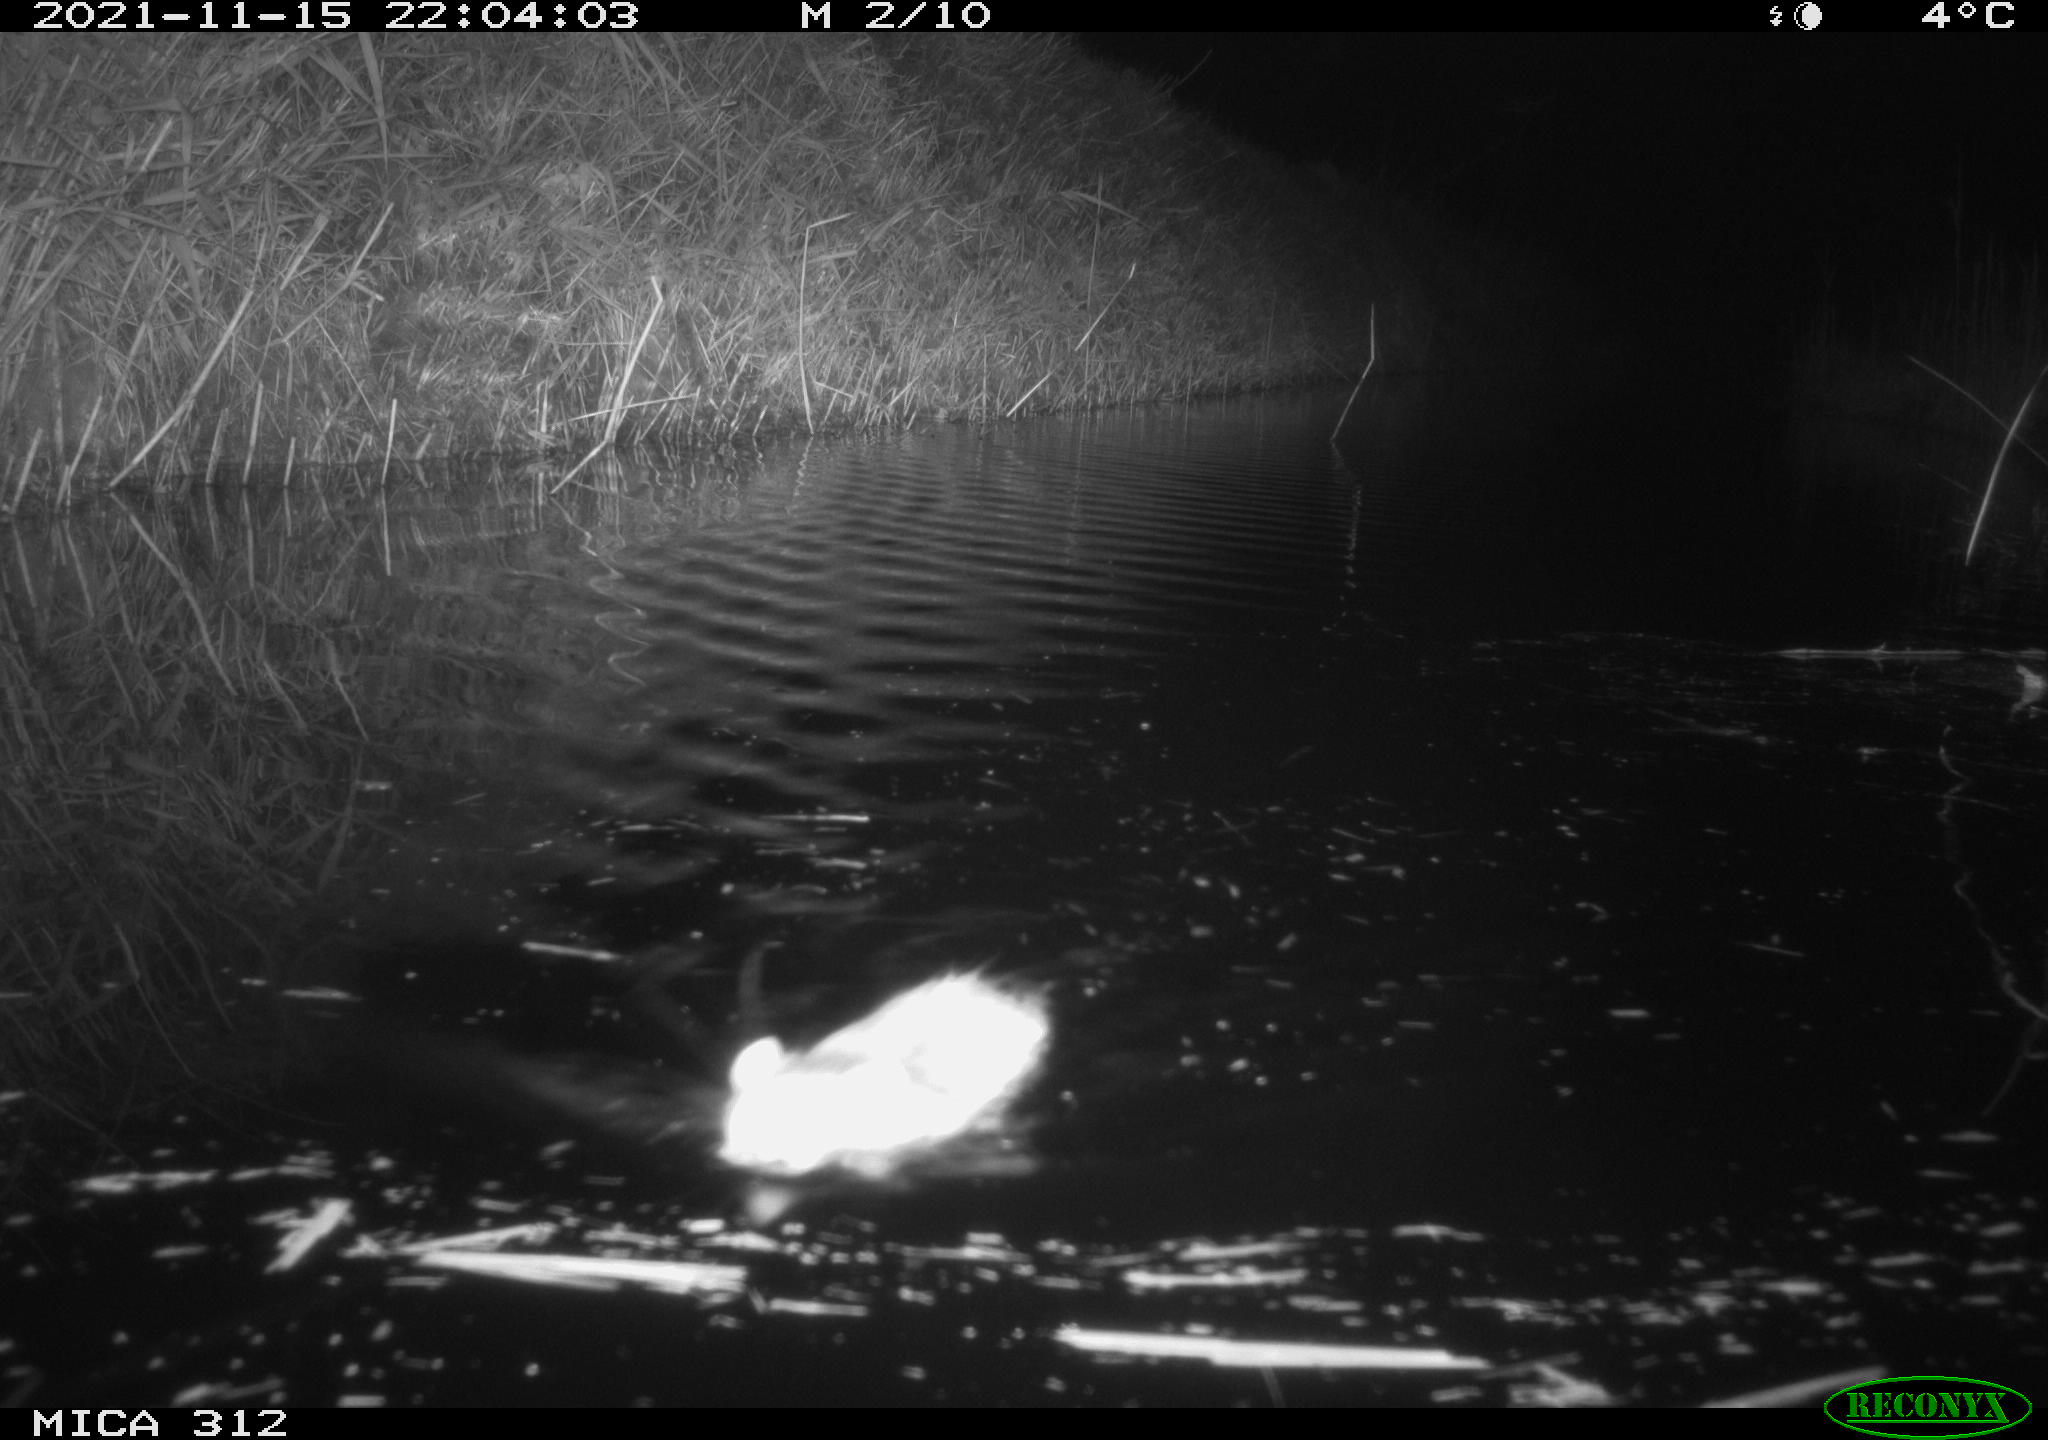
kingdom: Animalia
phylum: Chordata
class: Mammalia
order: Rodentia
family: Muridae
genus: Rattus
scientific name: Rattus norvegicus
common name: Brown rat
